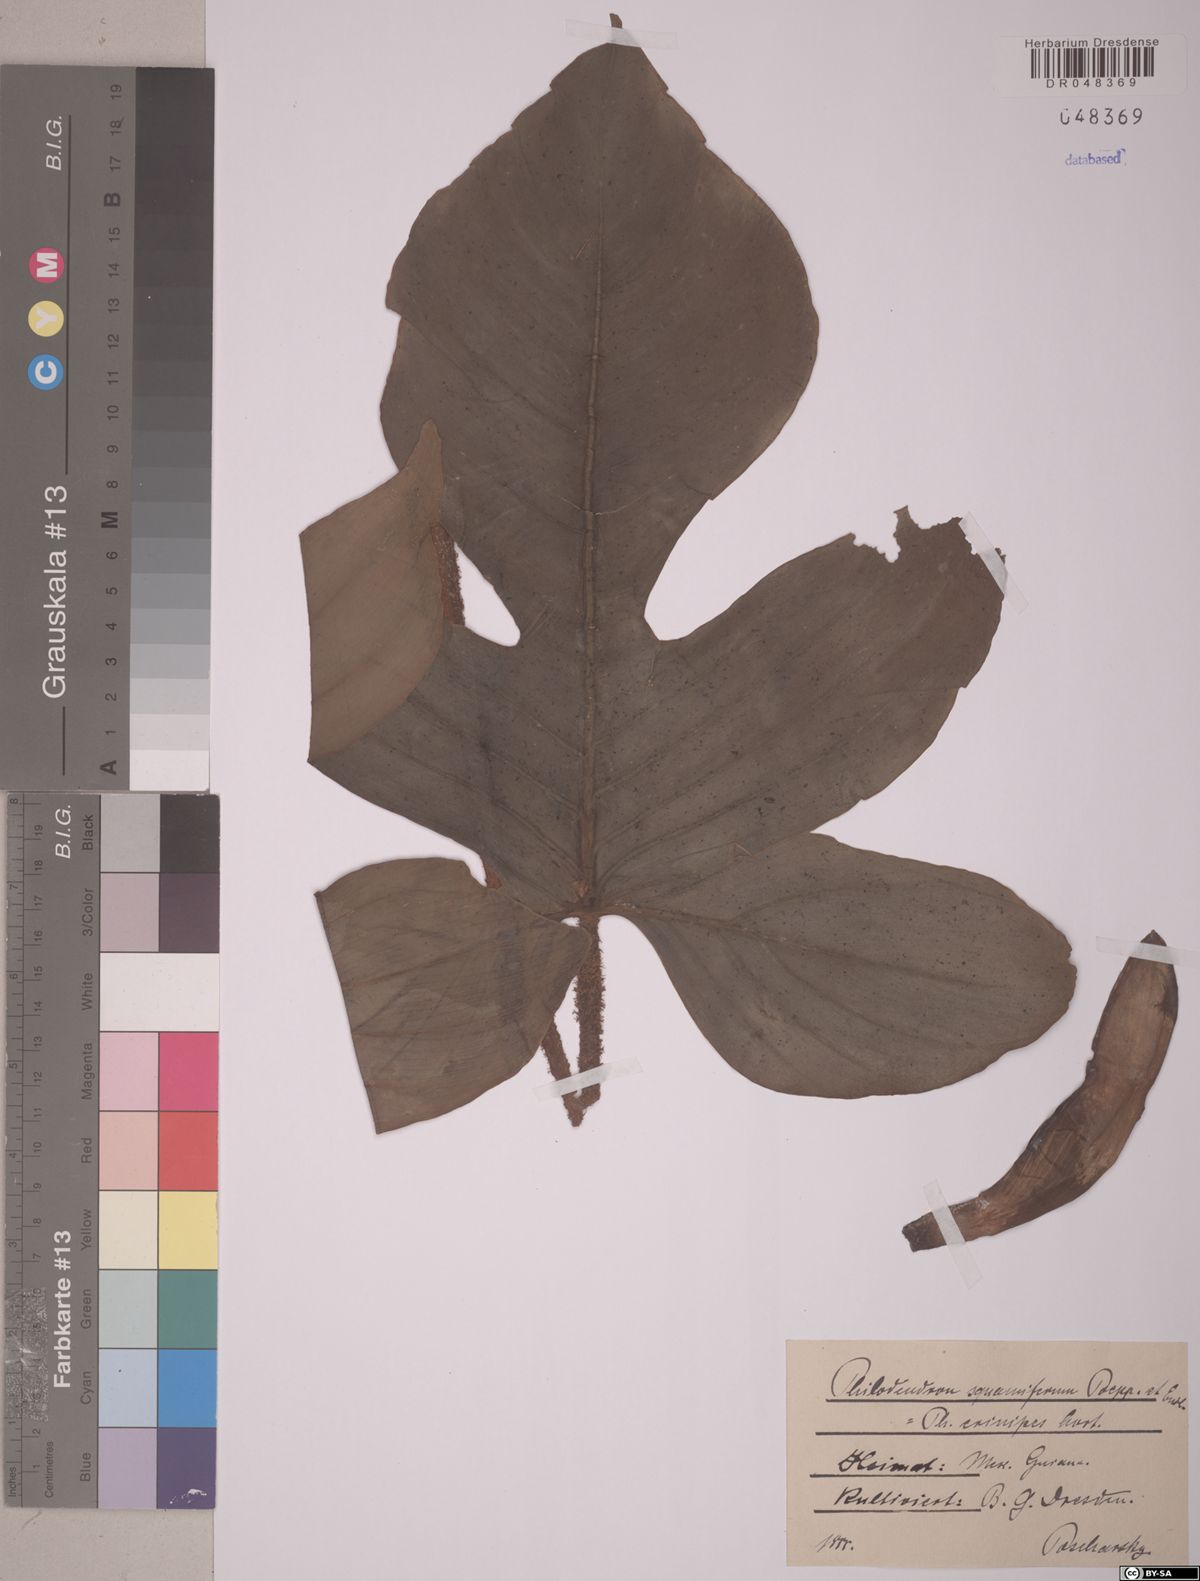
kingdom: Plantae
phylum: Tracheophyta
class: Liliopsida
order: Alismatales
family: Araceae
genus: Philodendron
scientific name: Philodendron squamiferum
